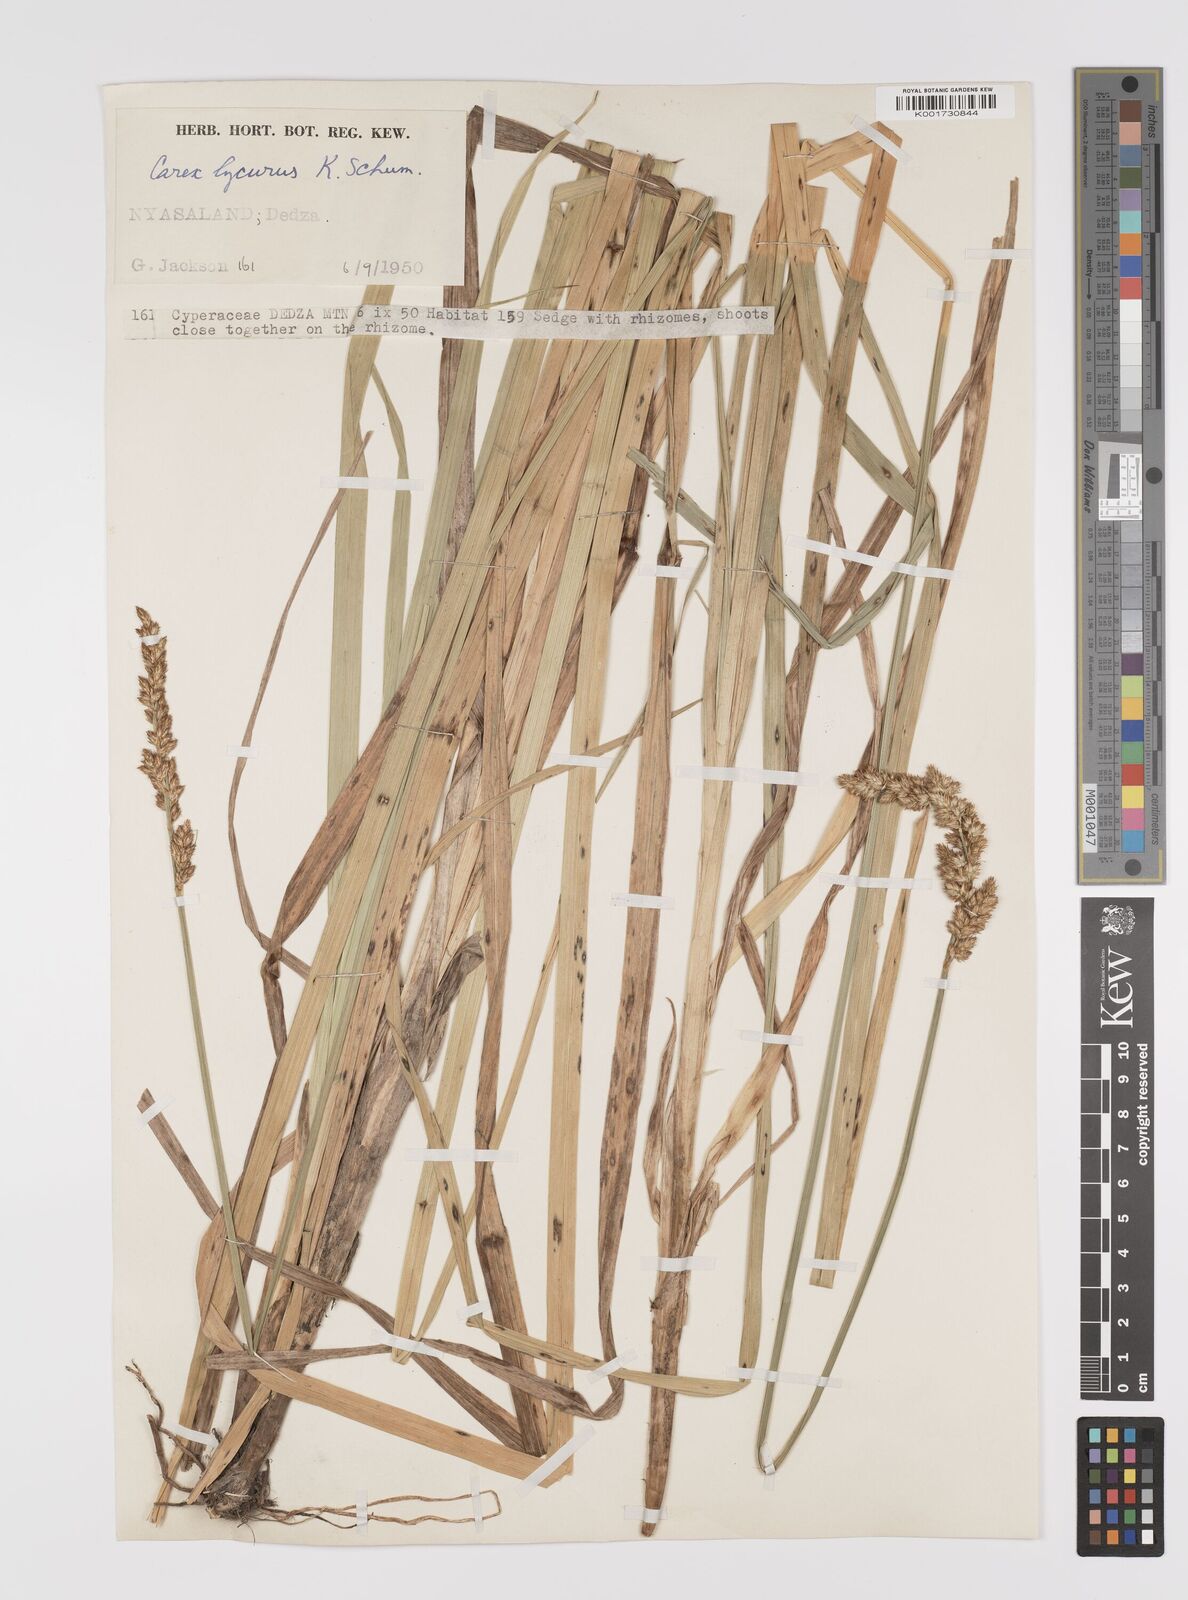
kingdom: Plantae
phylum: Tracheophyta
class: Liliopsida
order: Poales
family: Cyperaceae
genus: Carex
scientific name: Carex lycurus
